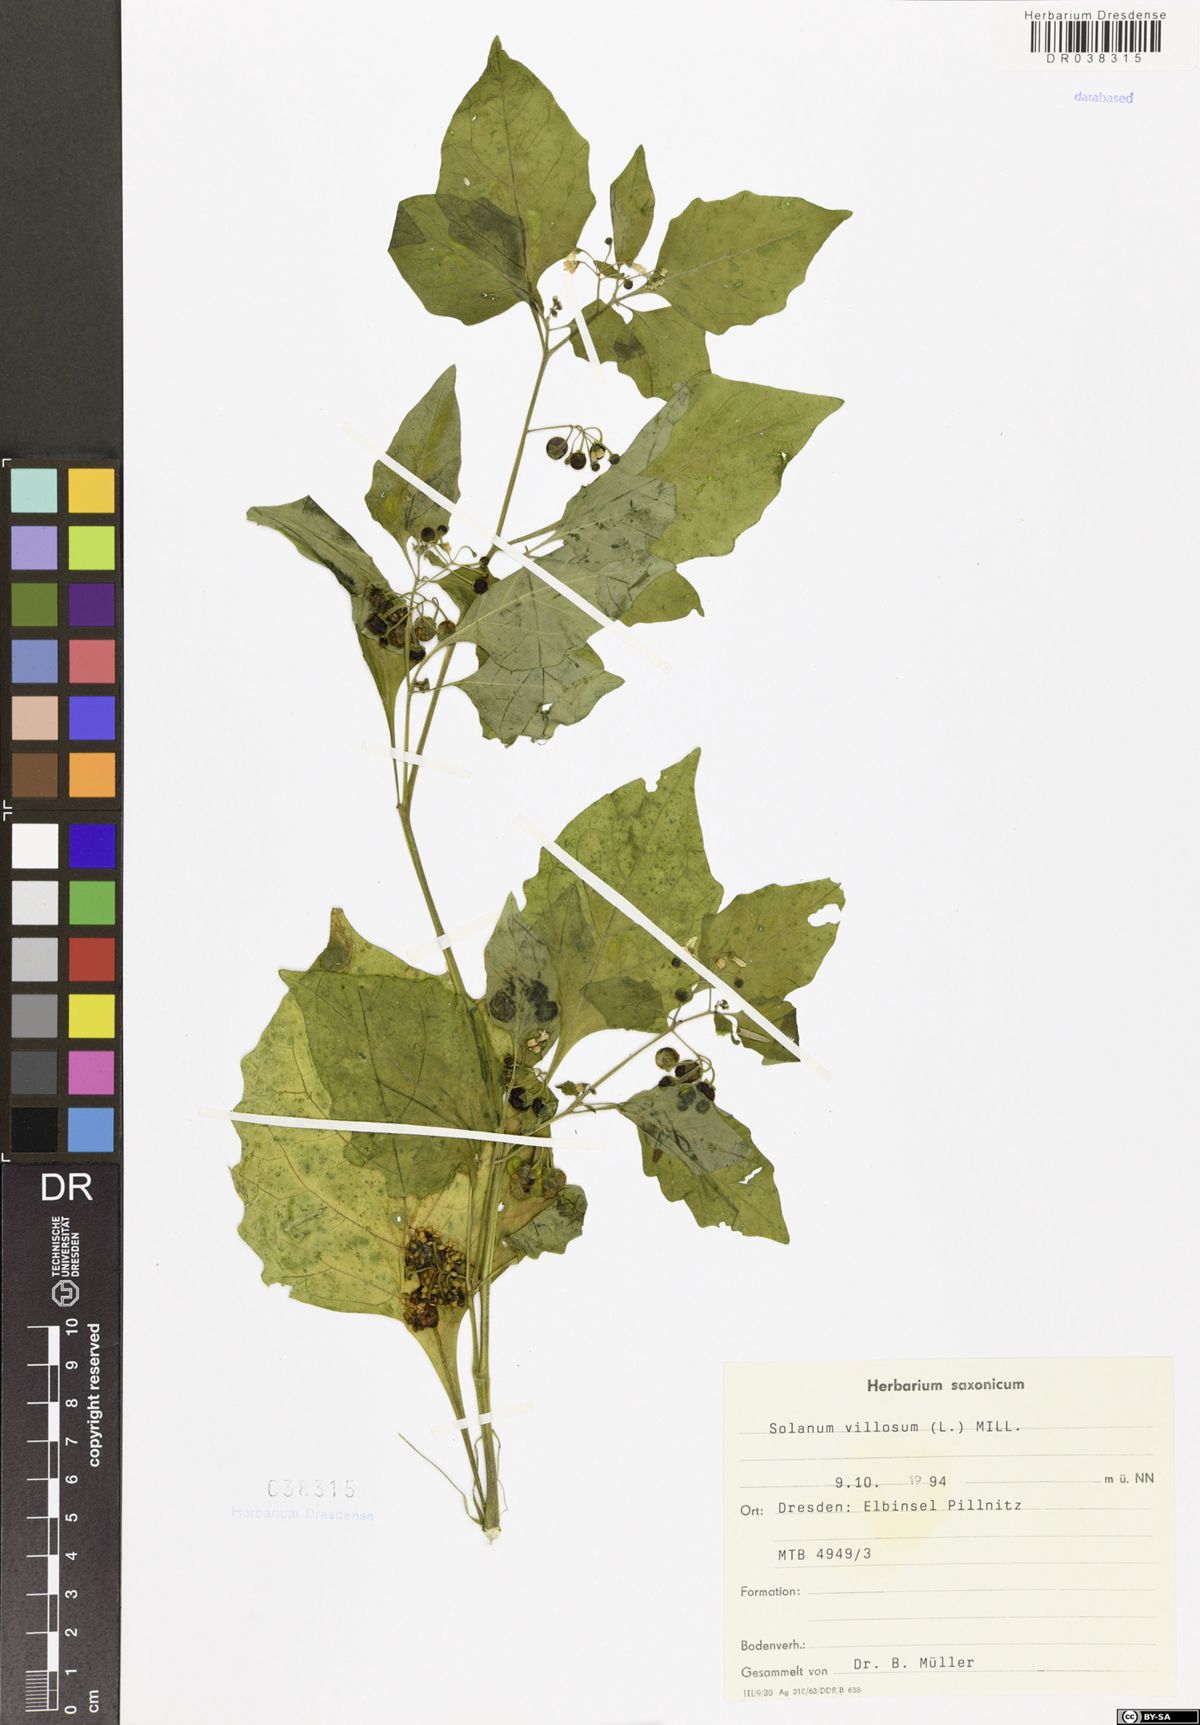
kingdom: Plantae
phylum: Tracheophyta
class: Magnoliopsida
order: Solanales
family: Solanaceae
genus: Solanum
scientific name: Solanum villosum
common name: Red nightshade
